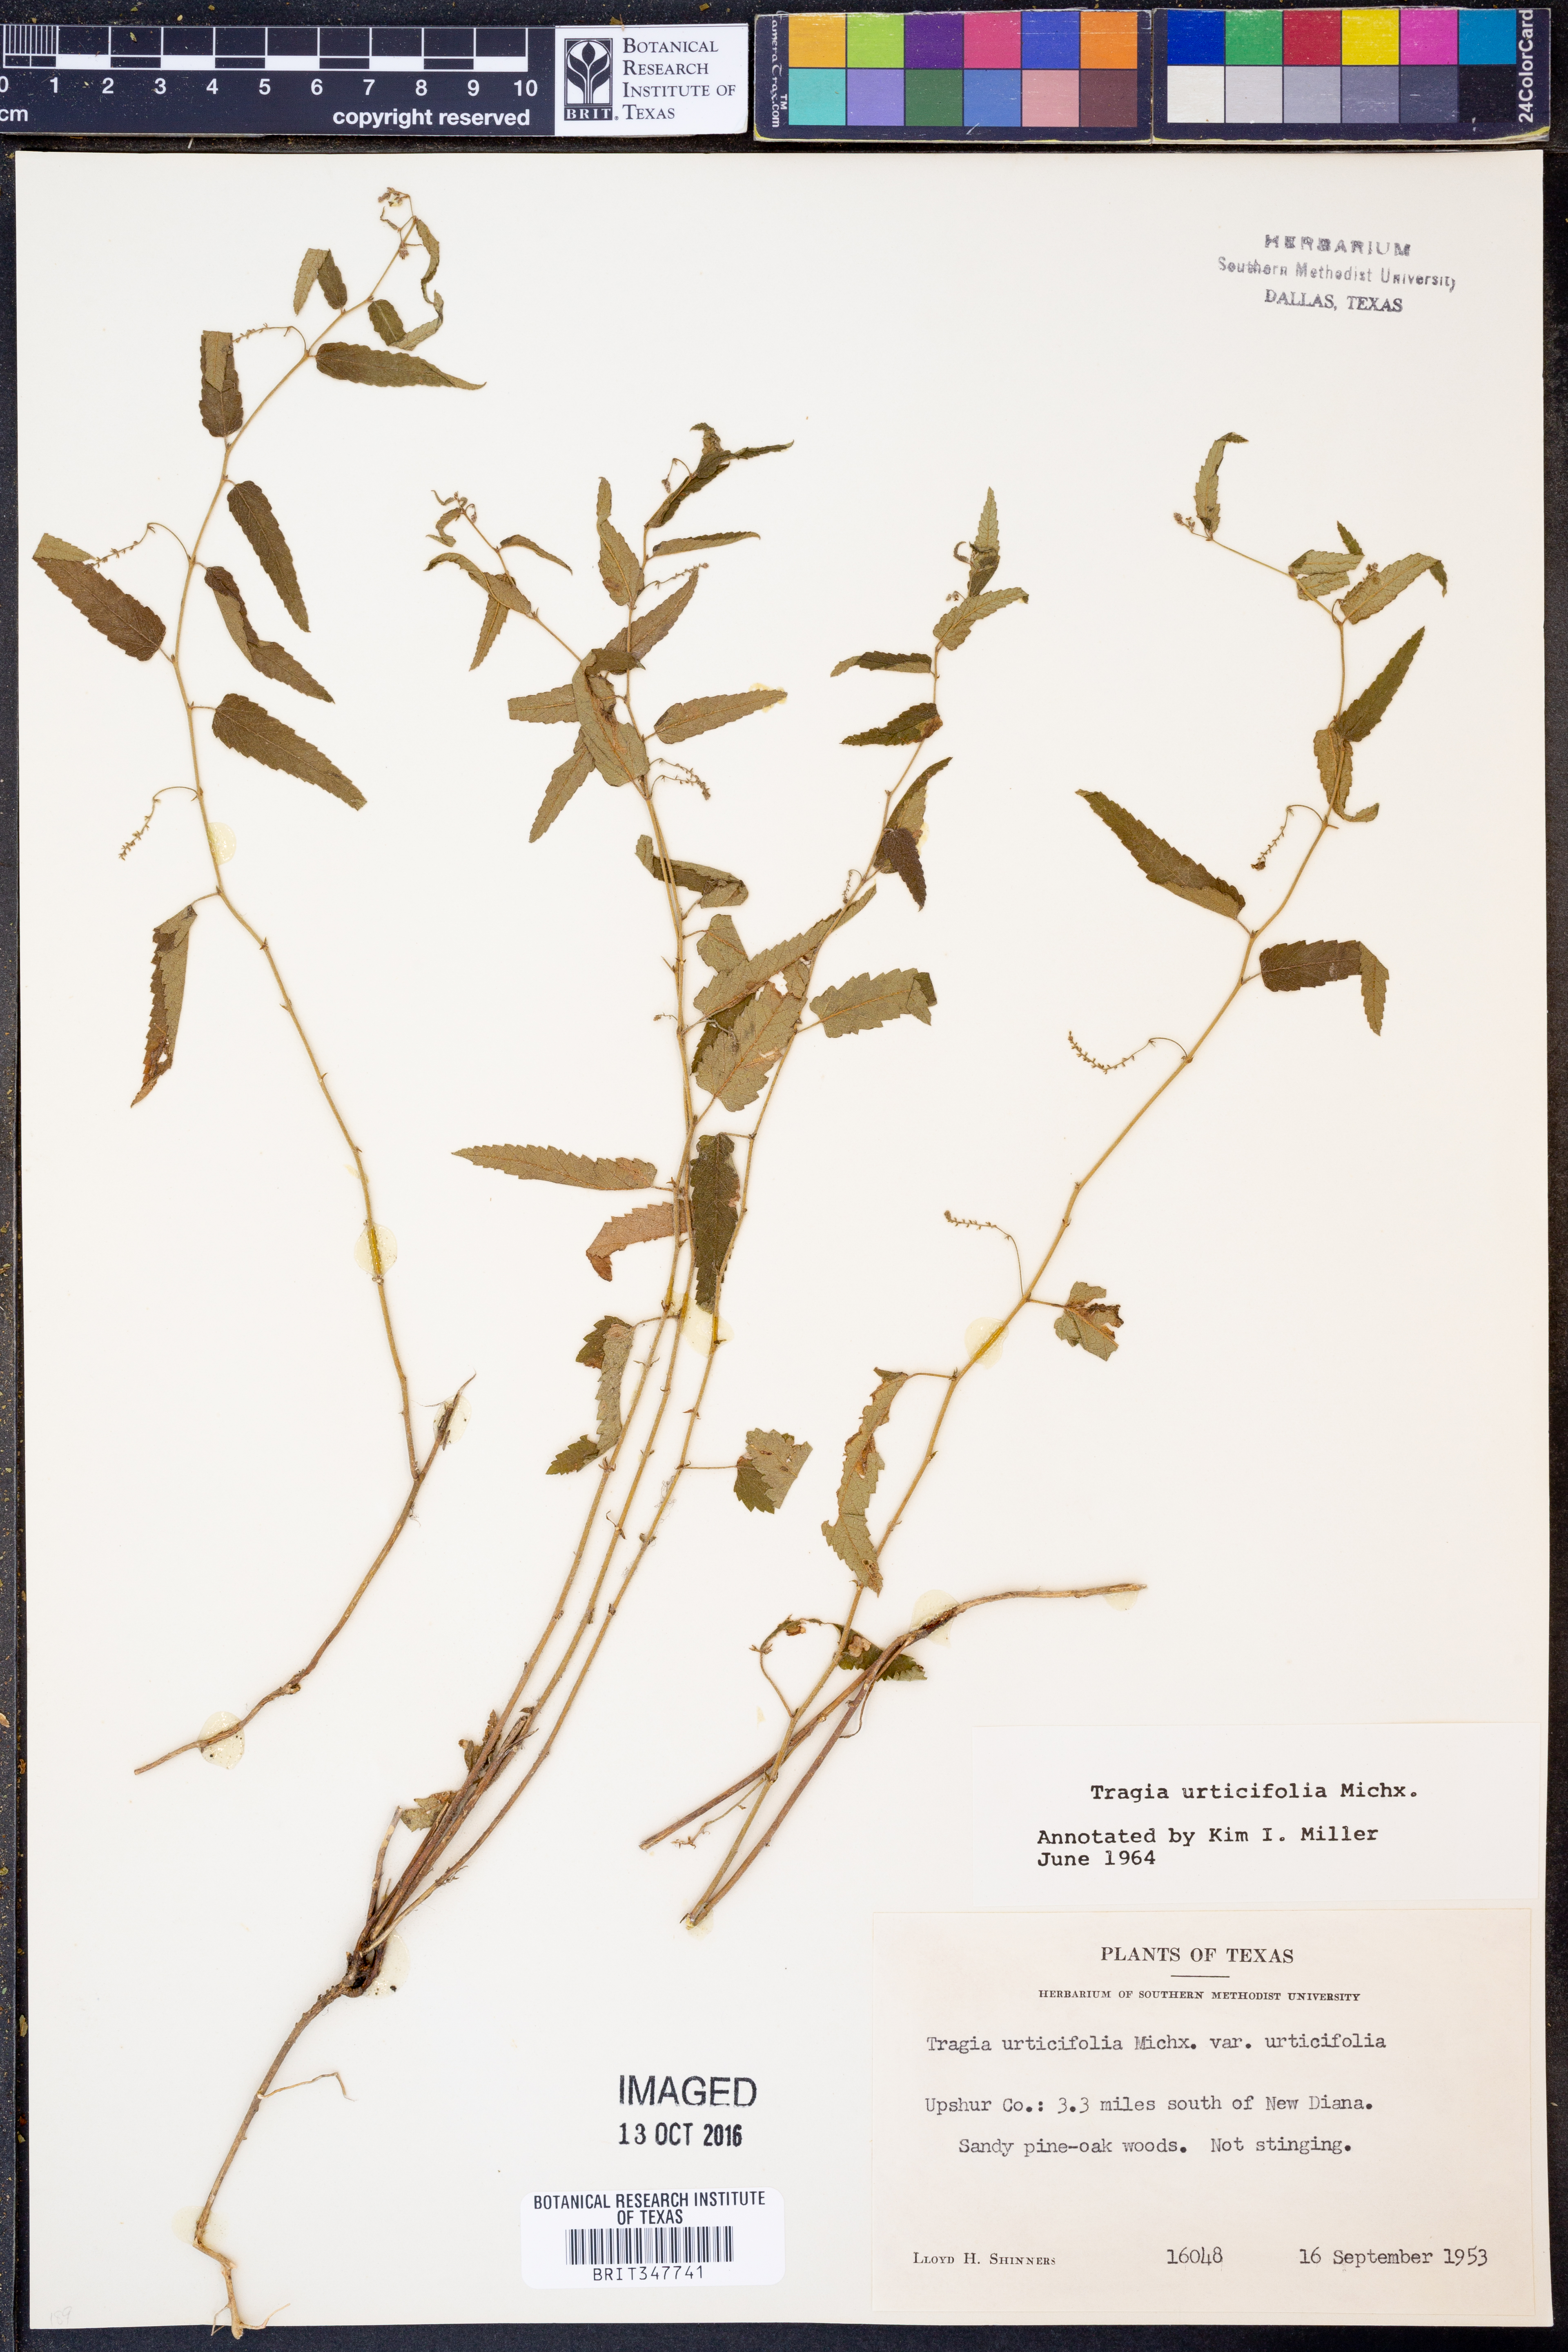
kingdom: Plantae
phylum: Tracheophyta
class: Magnoliopsida
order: Malpighiales
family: Euphorbiaceae
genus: Tragia
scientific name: Tragia urticifolia
